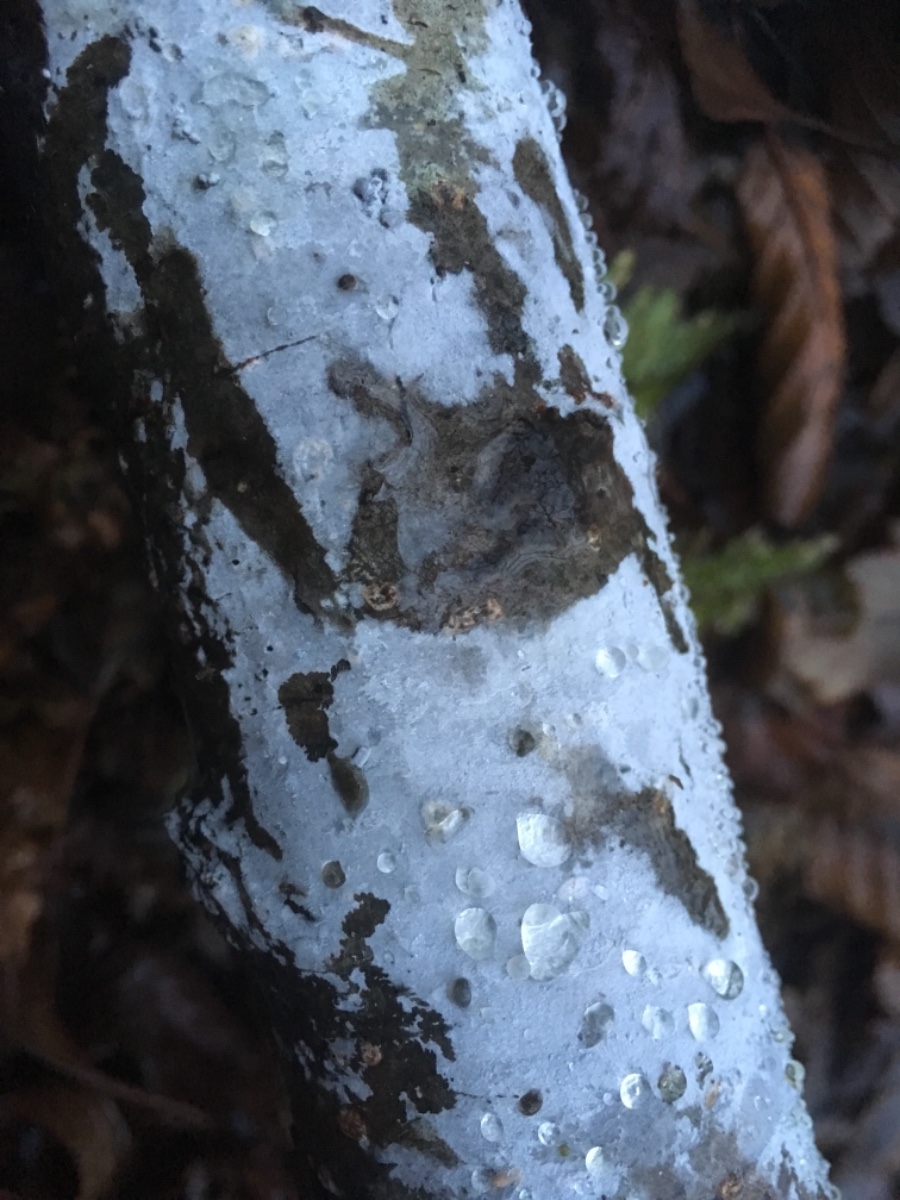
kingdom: Fungi
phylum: Basidiomycota
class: Agaricomycetes
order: Corticiales
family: Corticiaceae
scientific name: Corticiaceae
